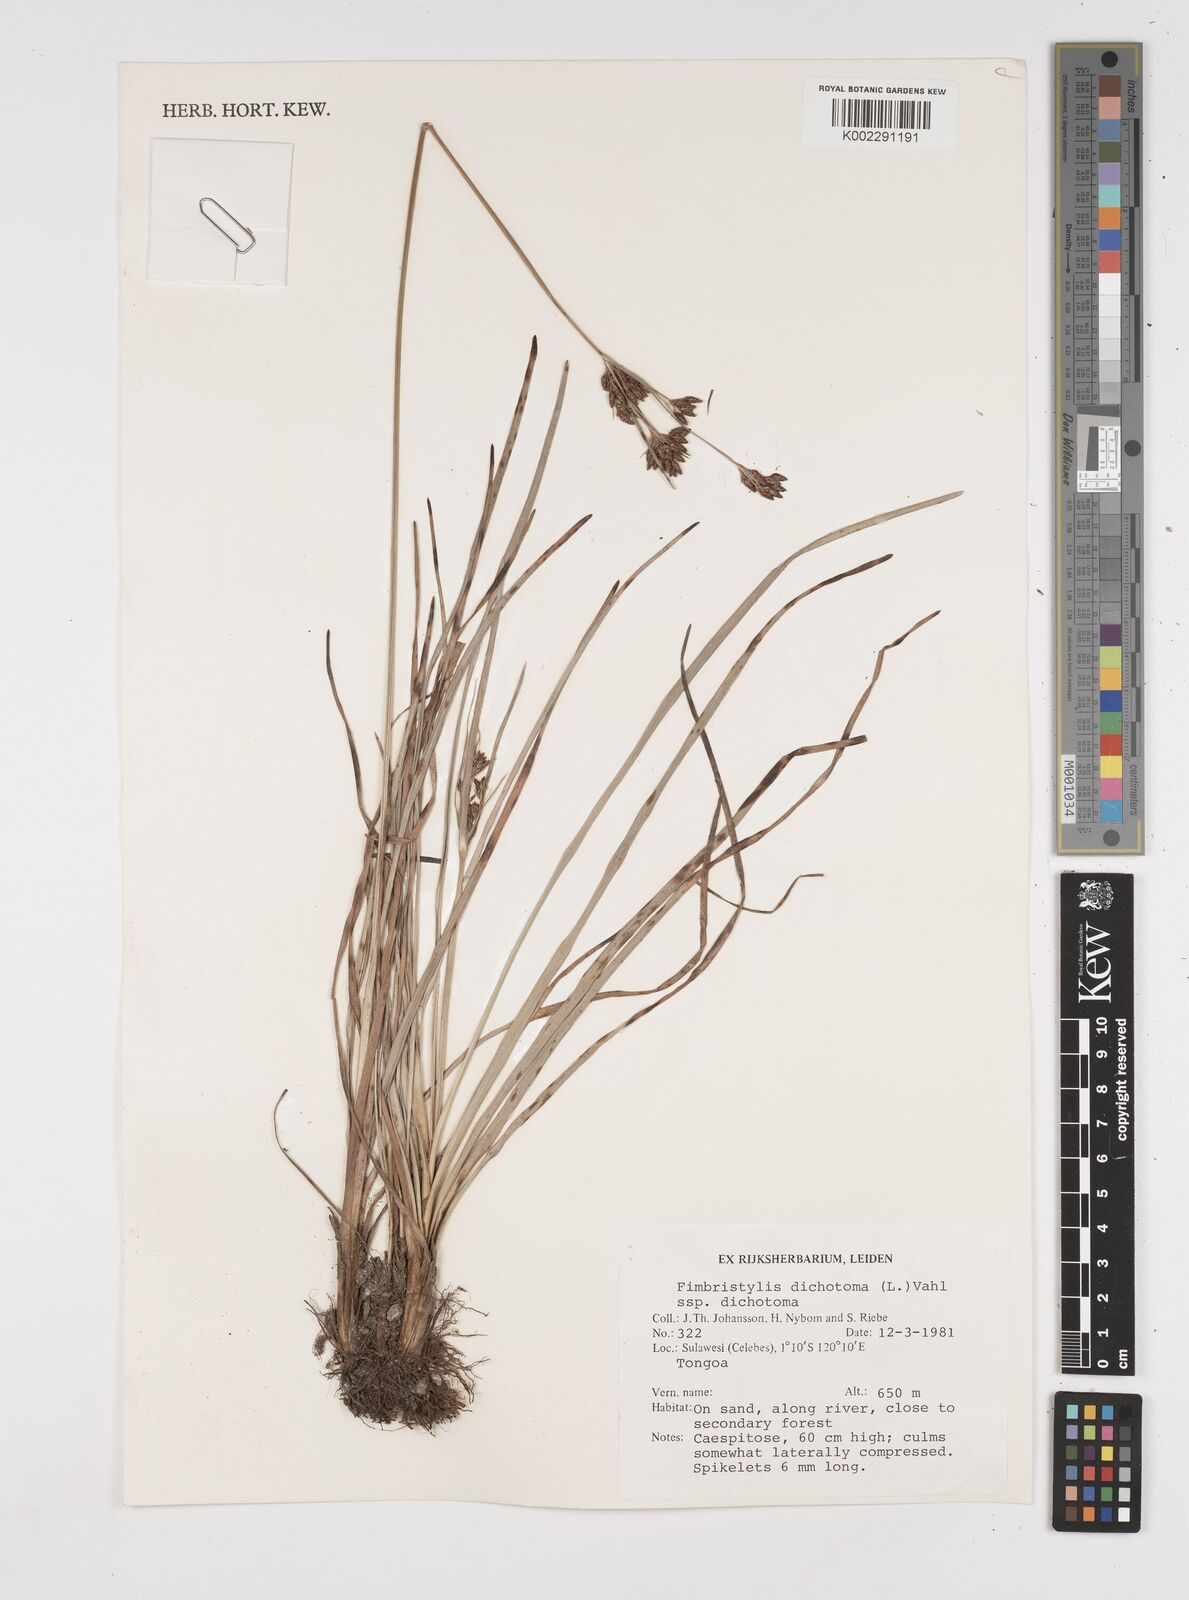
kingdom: Plantae
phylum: Tracheophyta
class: Liliopsida
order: Poales
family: Cyperaceae
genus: Fimbristylis
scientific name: Fimbristylis dichotoma
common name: Forked fimbry
